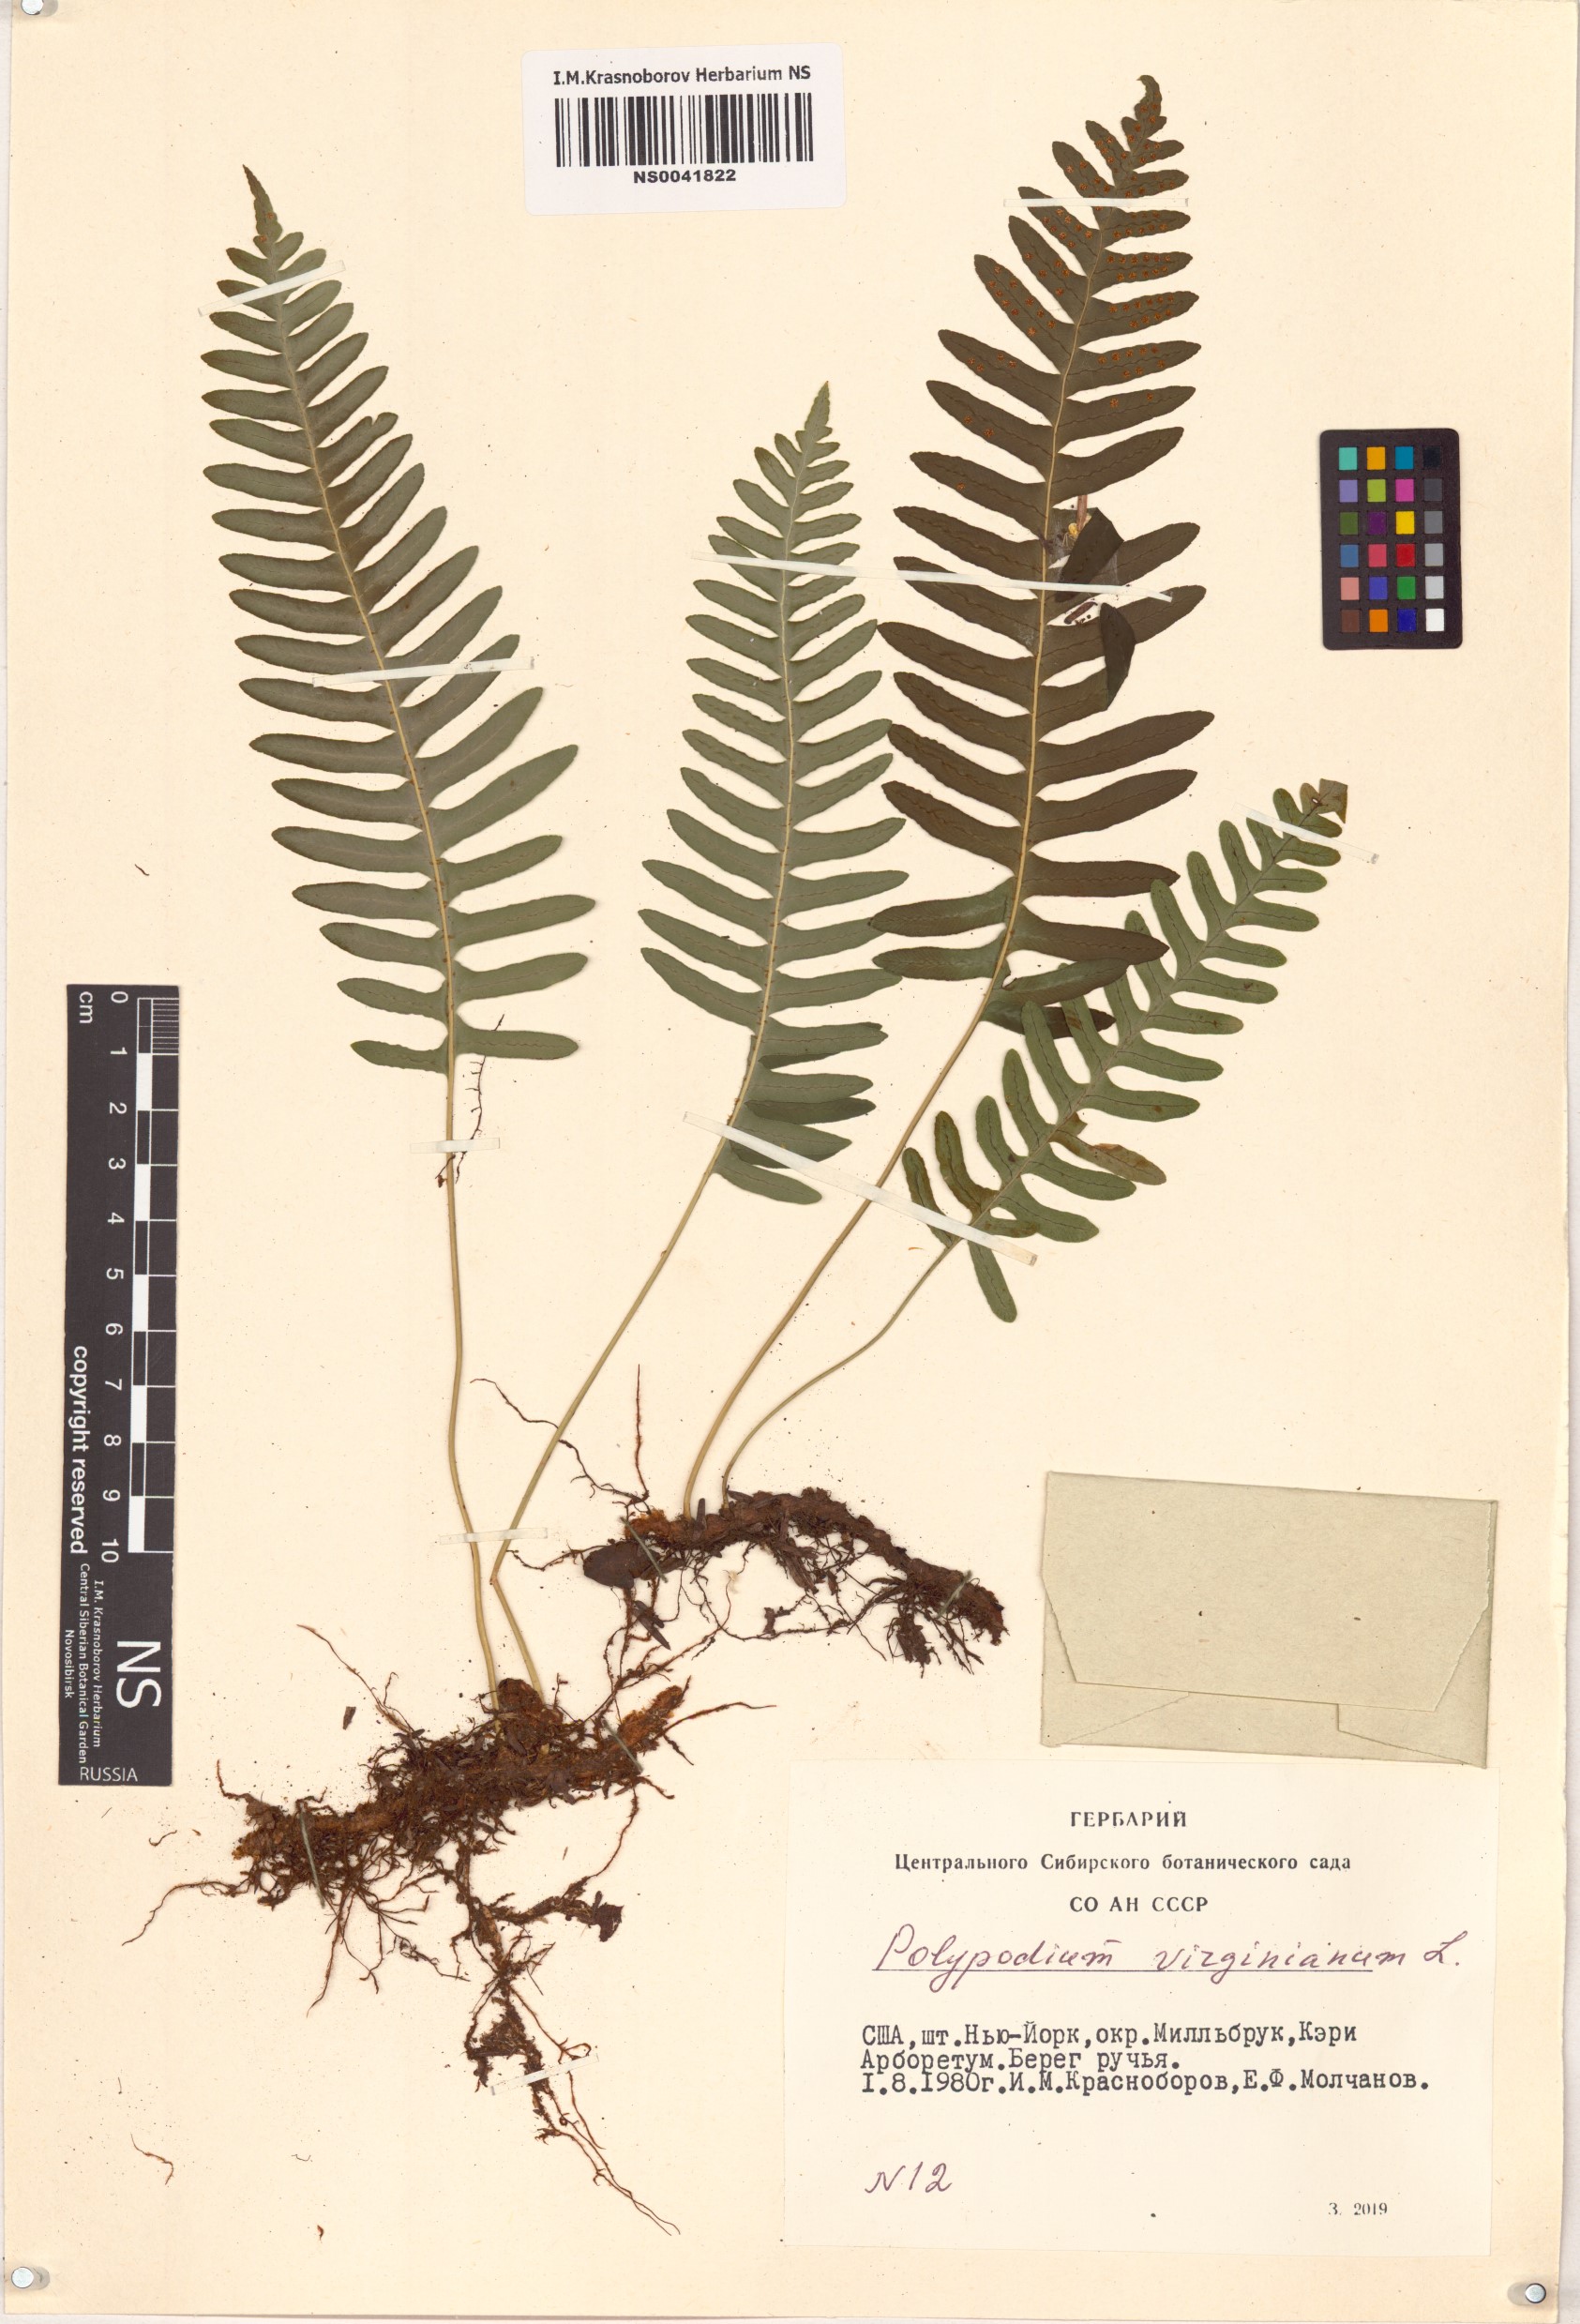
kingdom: Plantae
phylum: Tracheophyta
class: Polypodiopsida
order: Polypodiales
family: Polypodiaceae
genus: Polypodium
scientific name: Polypodium virginianum
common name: American wall fern
